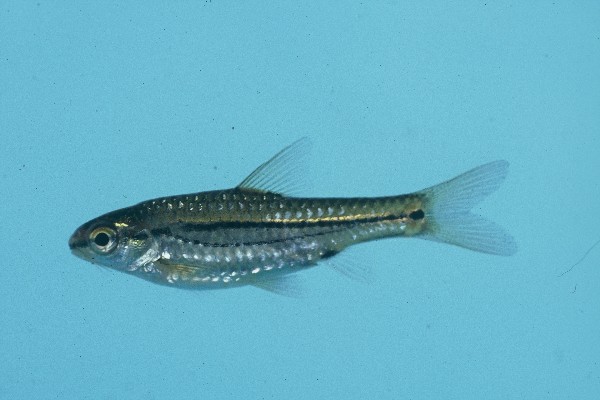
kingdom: Animalia
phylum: Chordata
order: Cypriniformes
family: Cyprinidae
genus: Enteromius
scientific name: Enteromius bifrenatus
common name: Hyphen barb
